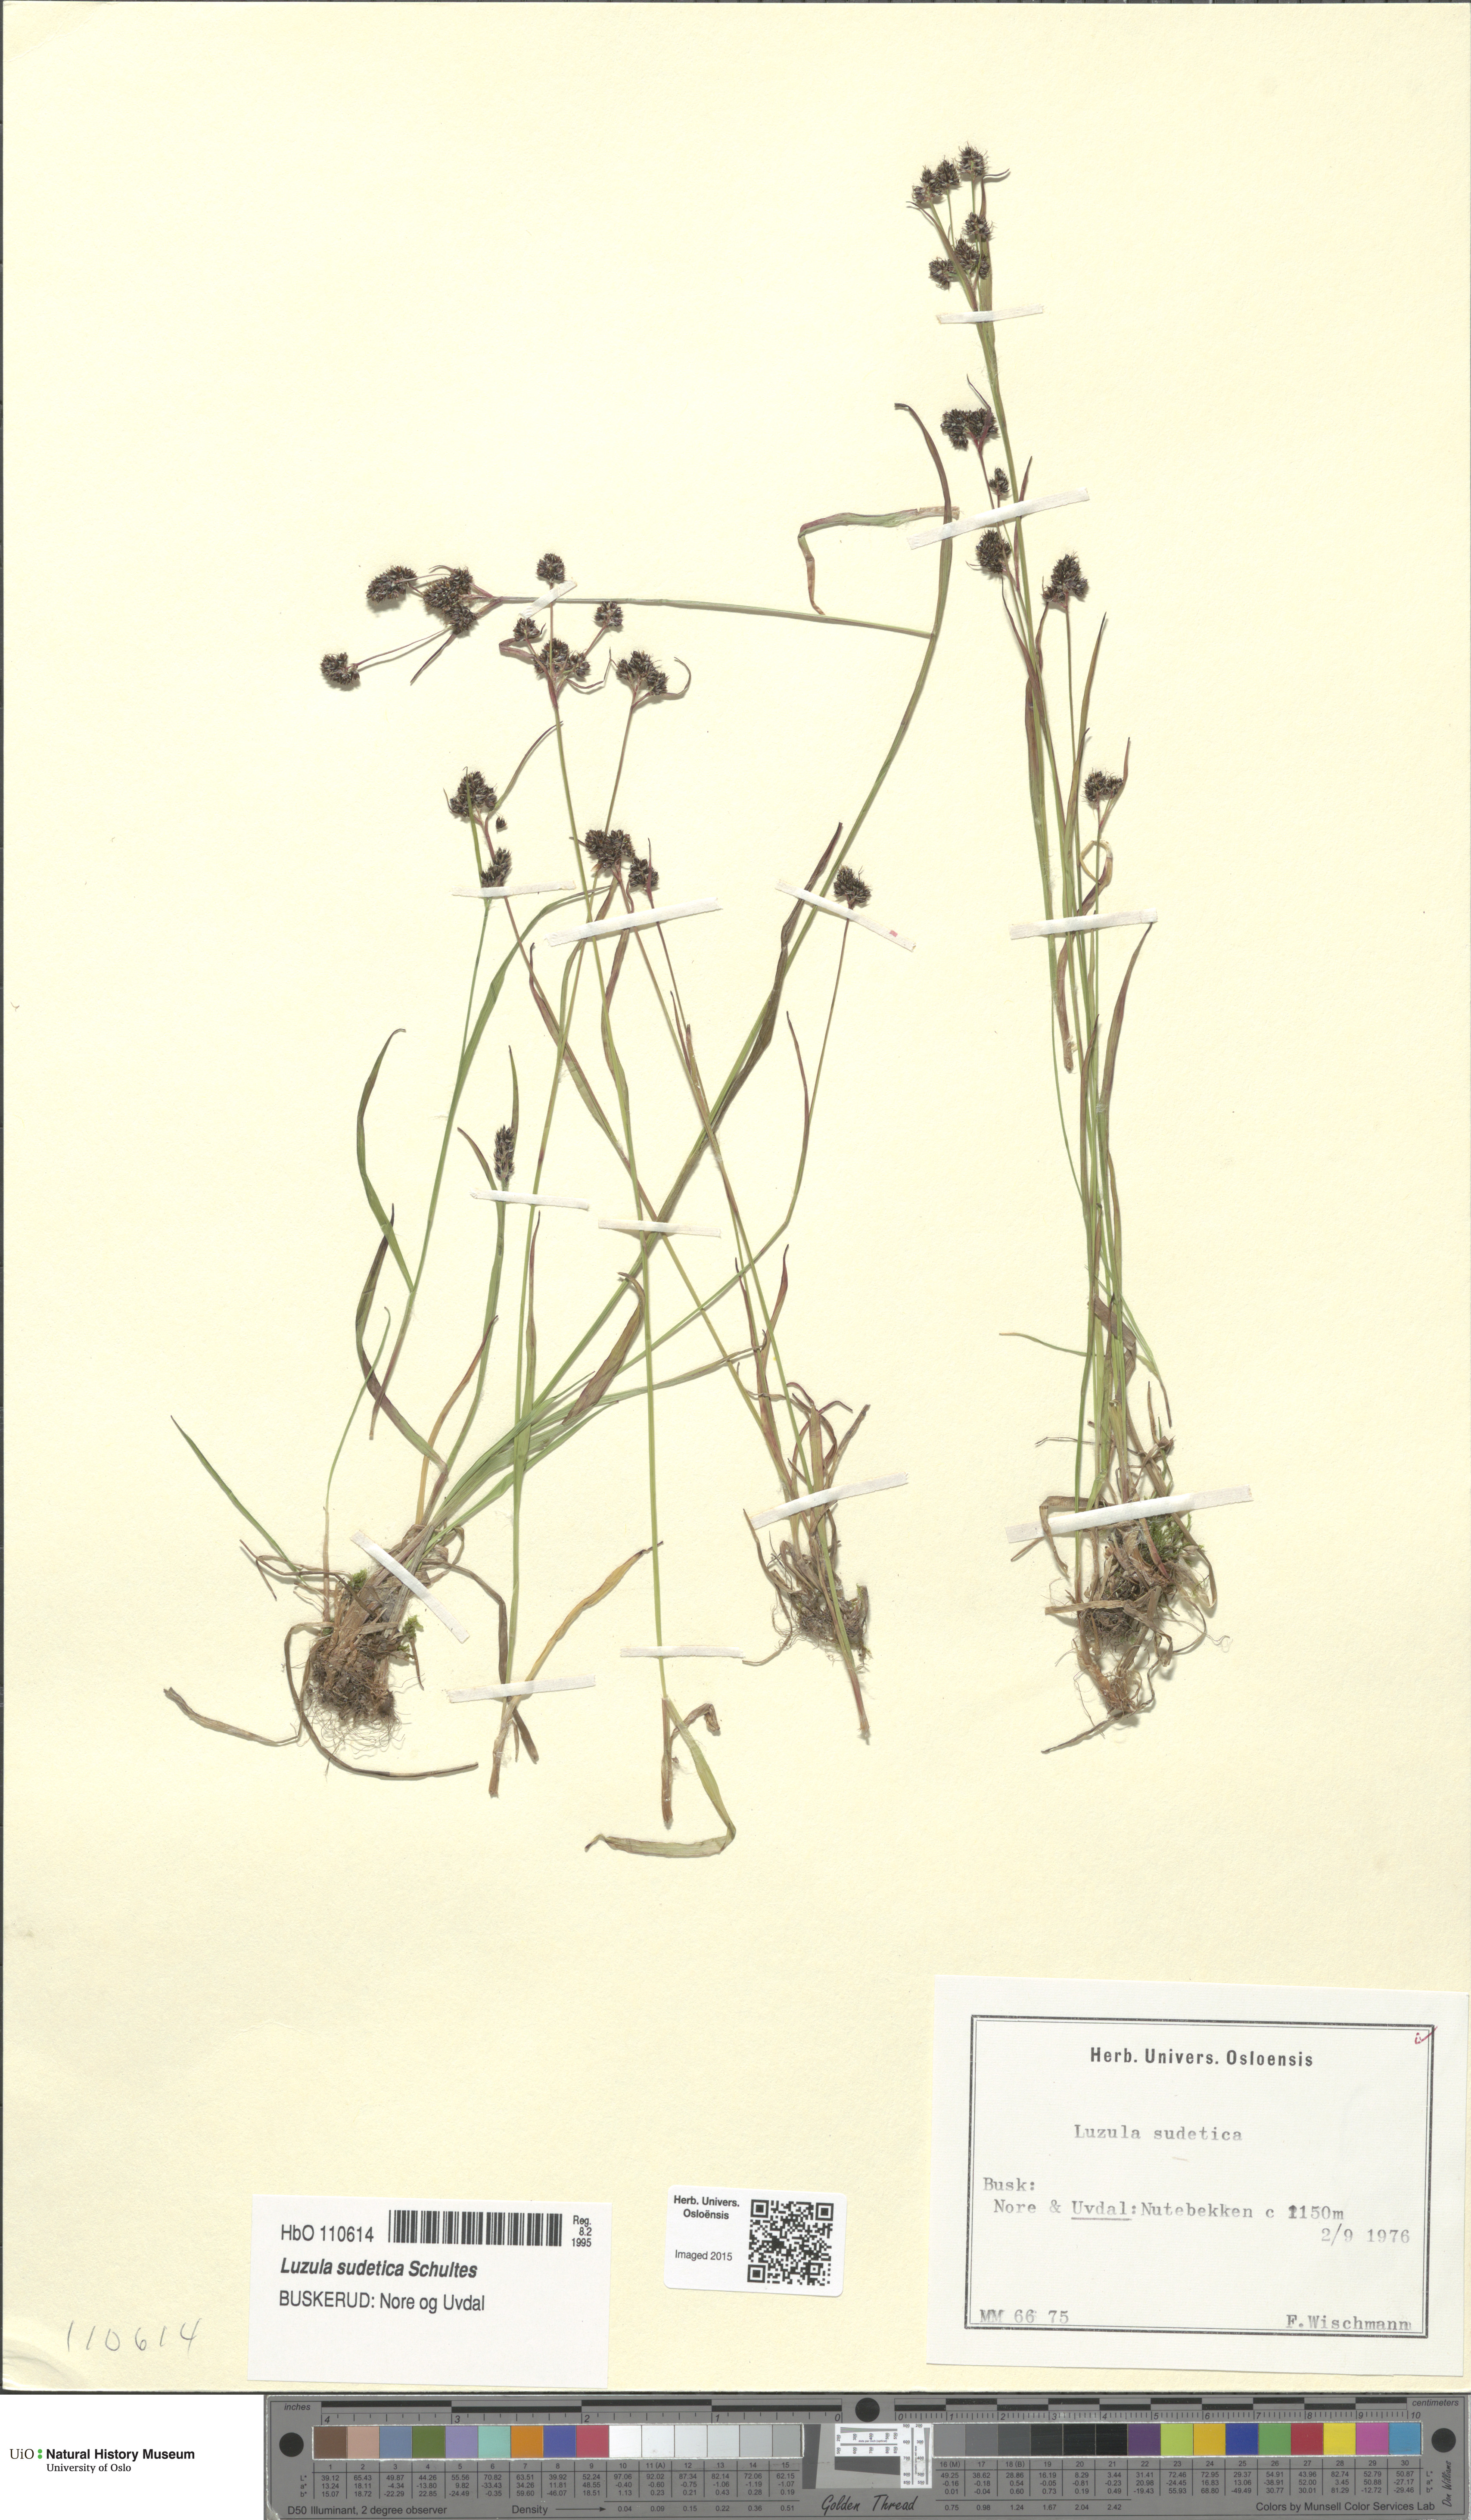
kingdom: Plantae
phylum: Tracheophyta
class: Liliopsida
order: Poales
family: Juncaceae
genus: Luzula
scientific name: Luzula sudetica
